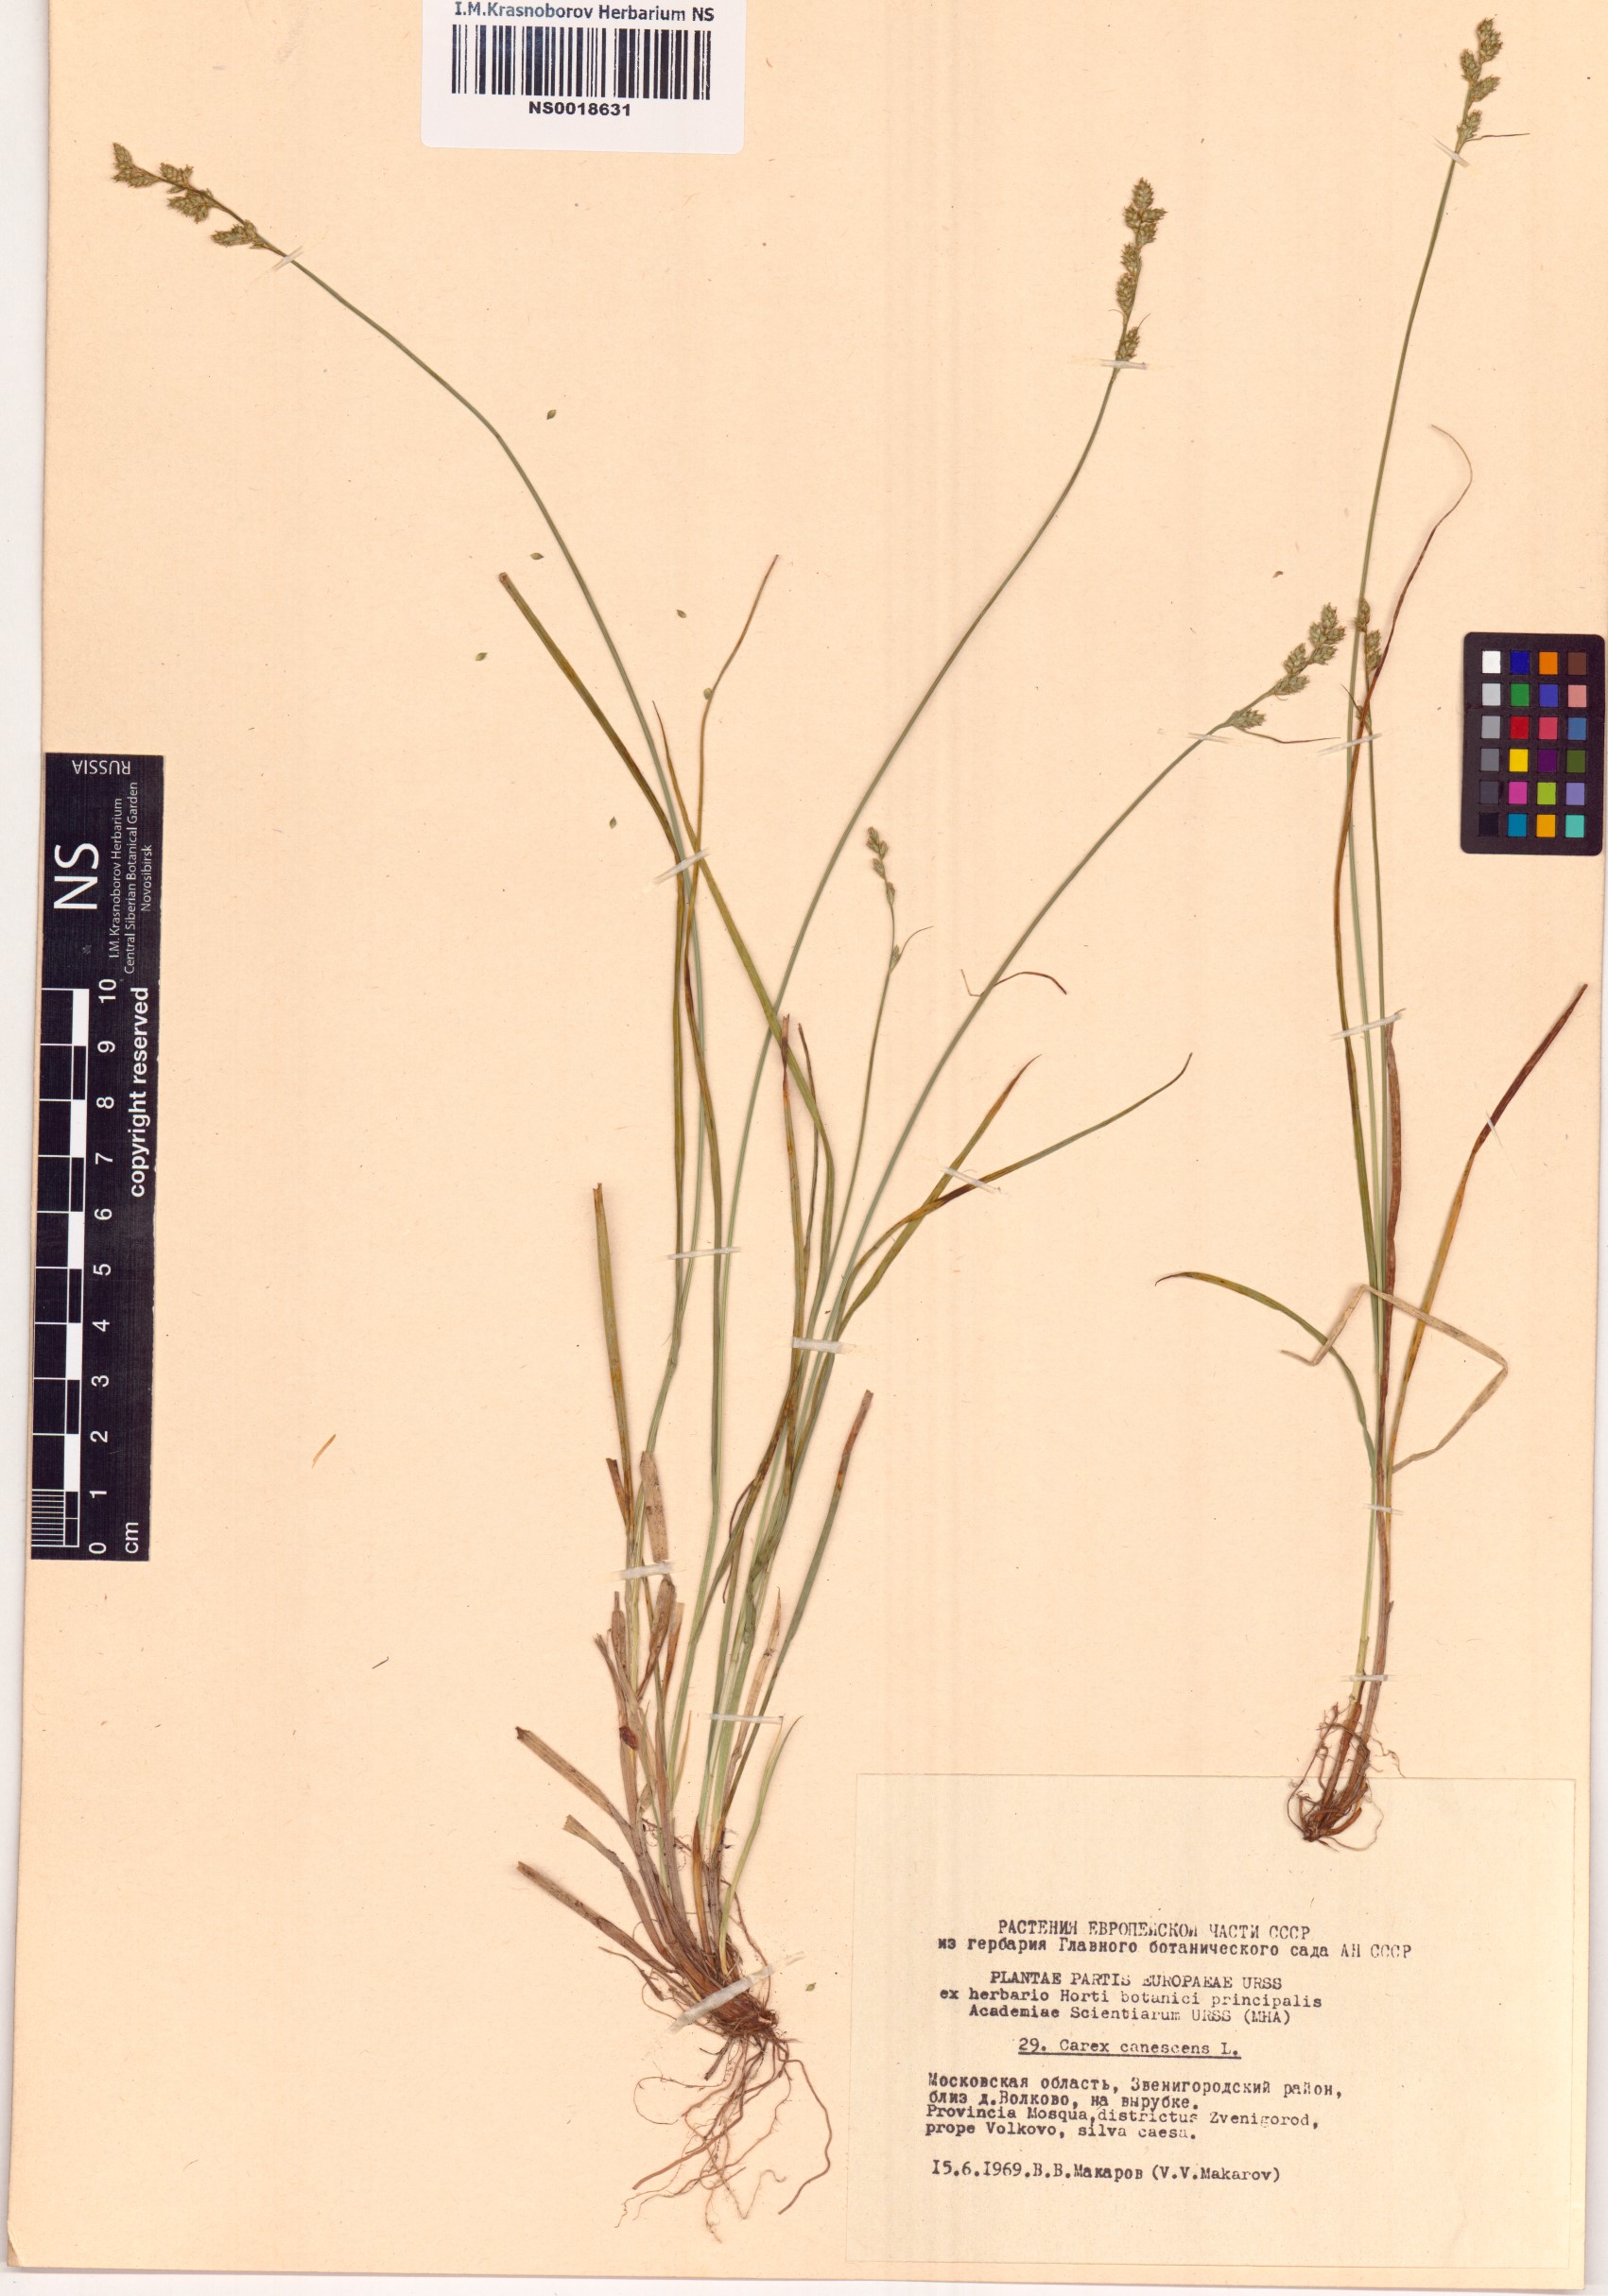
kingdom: Plantae
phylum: Tracheophyta
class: Liliopsida
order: Poales
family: Cyperaceae
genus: Carex
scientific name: Carex canescens
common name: White sedge
